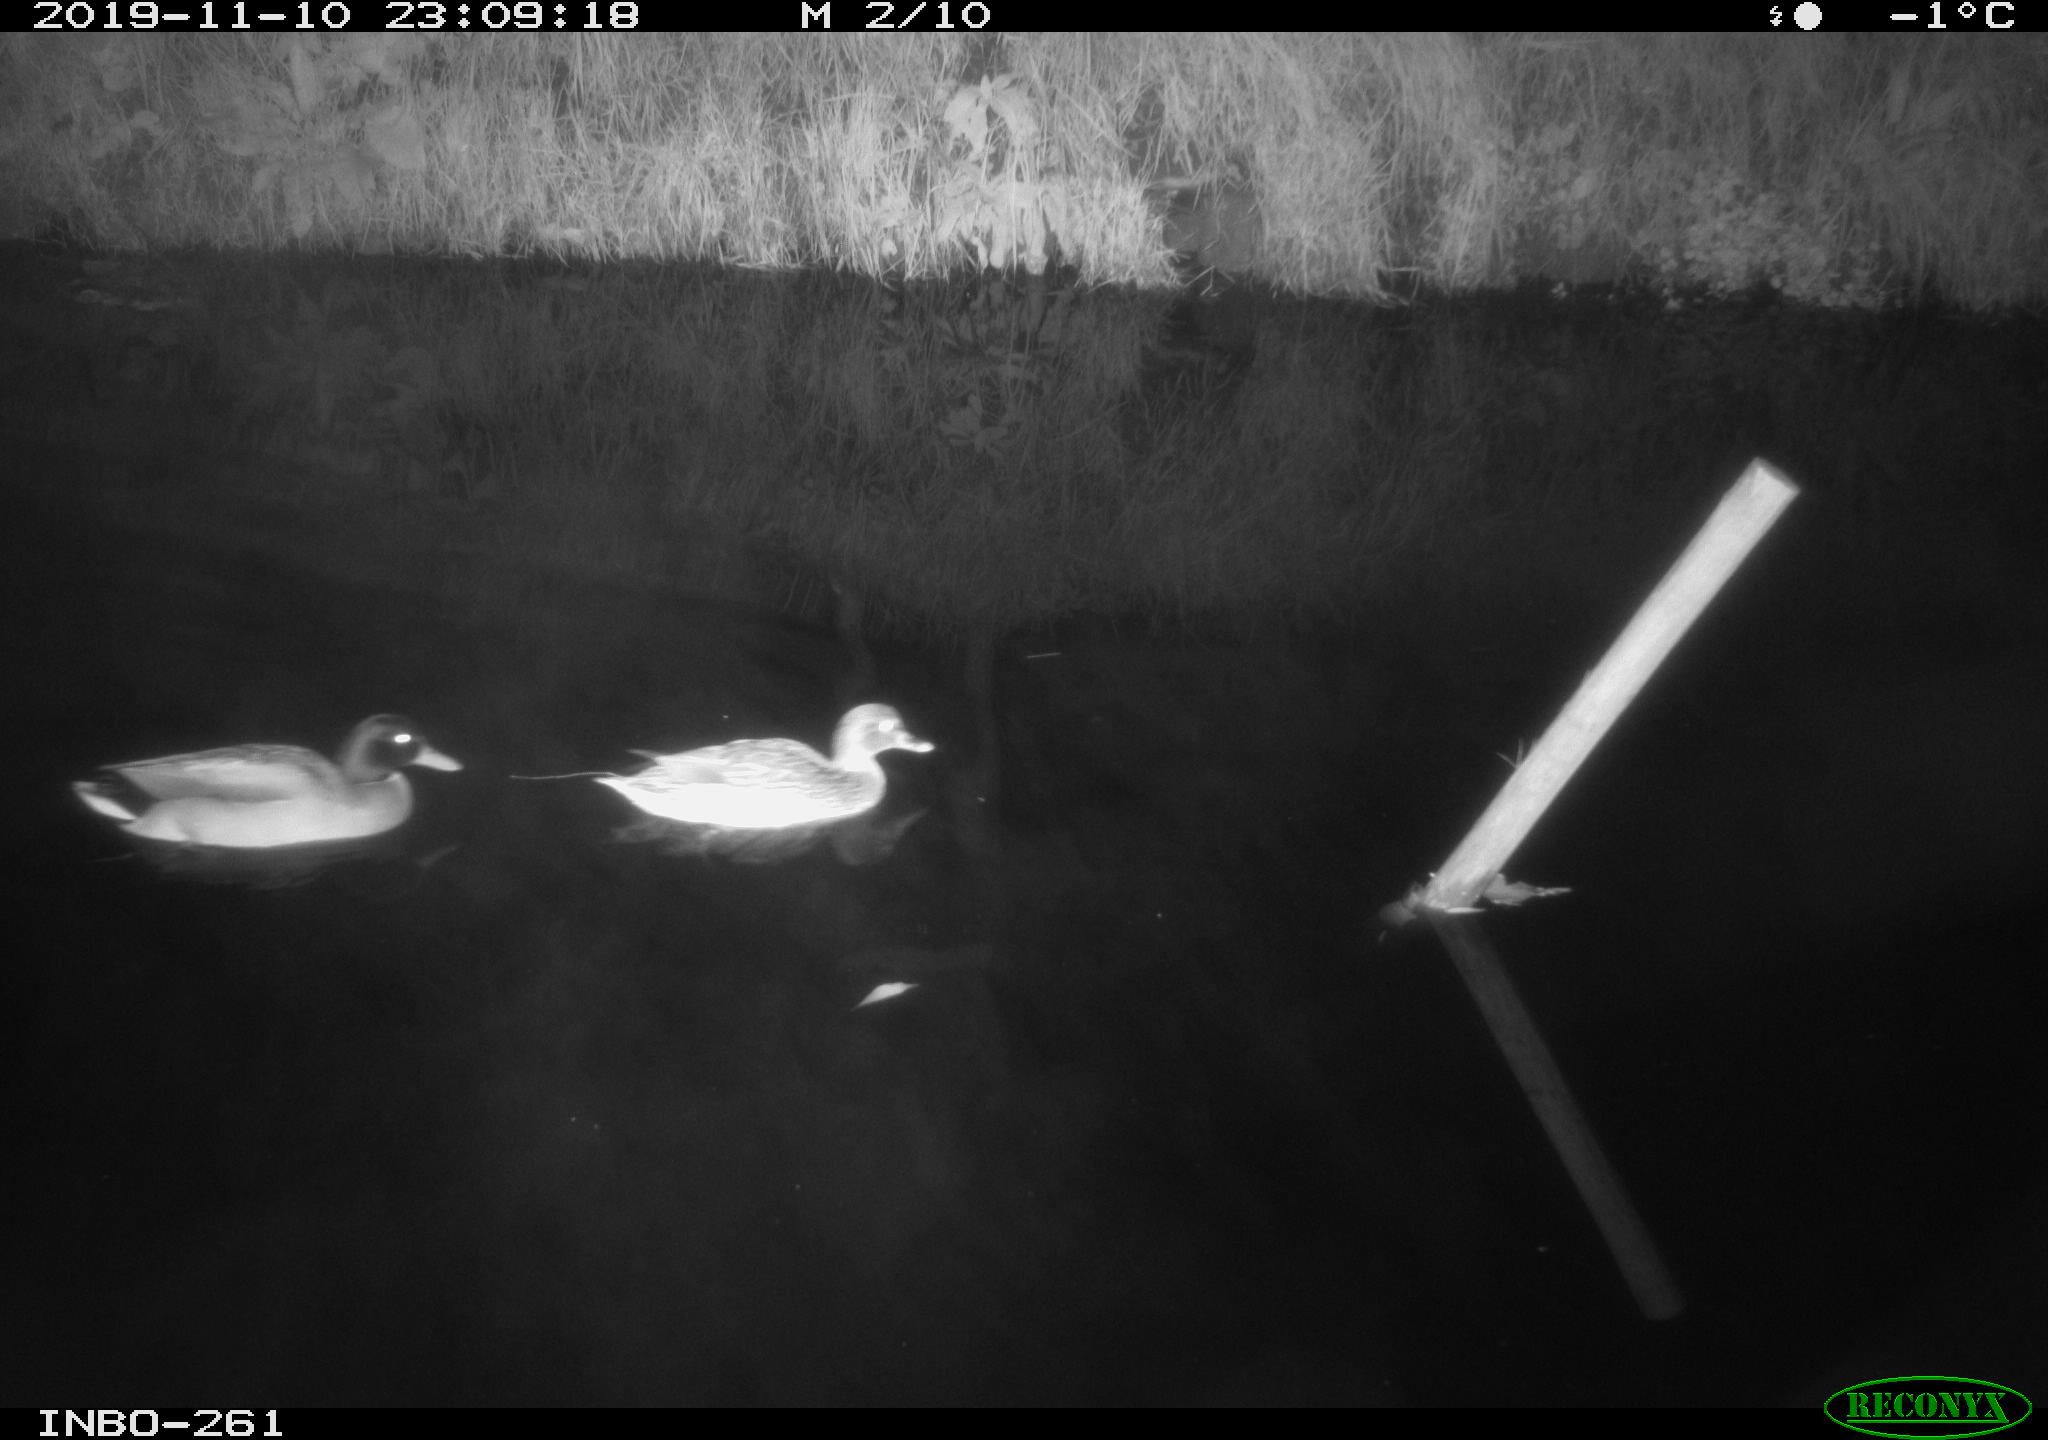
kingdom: Animalia
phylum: Chordata
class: Aves
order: Anseriformes
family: Anatidae
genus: Anas
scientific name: Anas platyrhynchos
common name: Mallard
